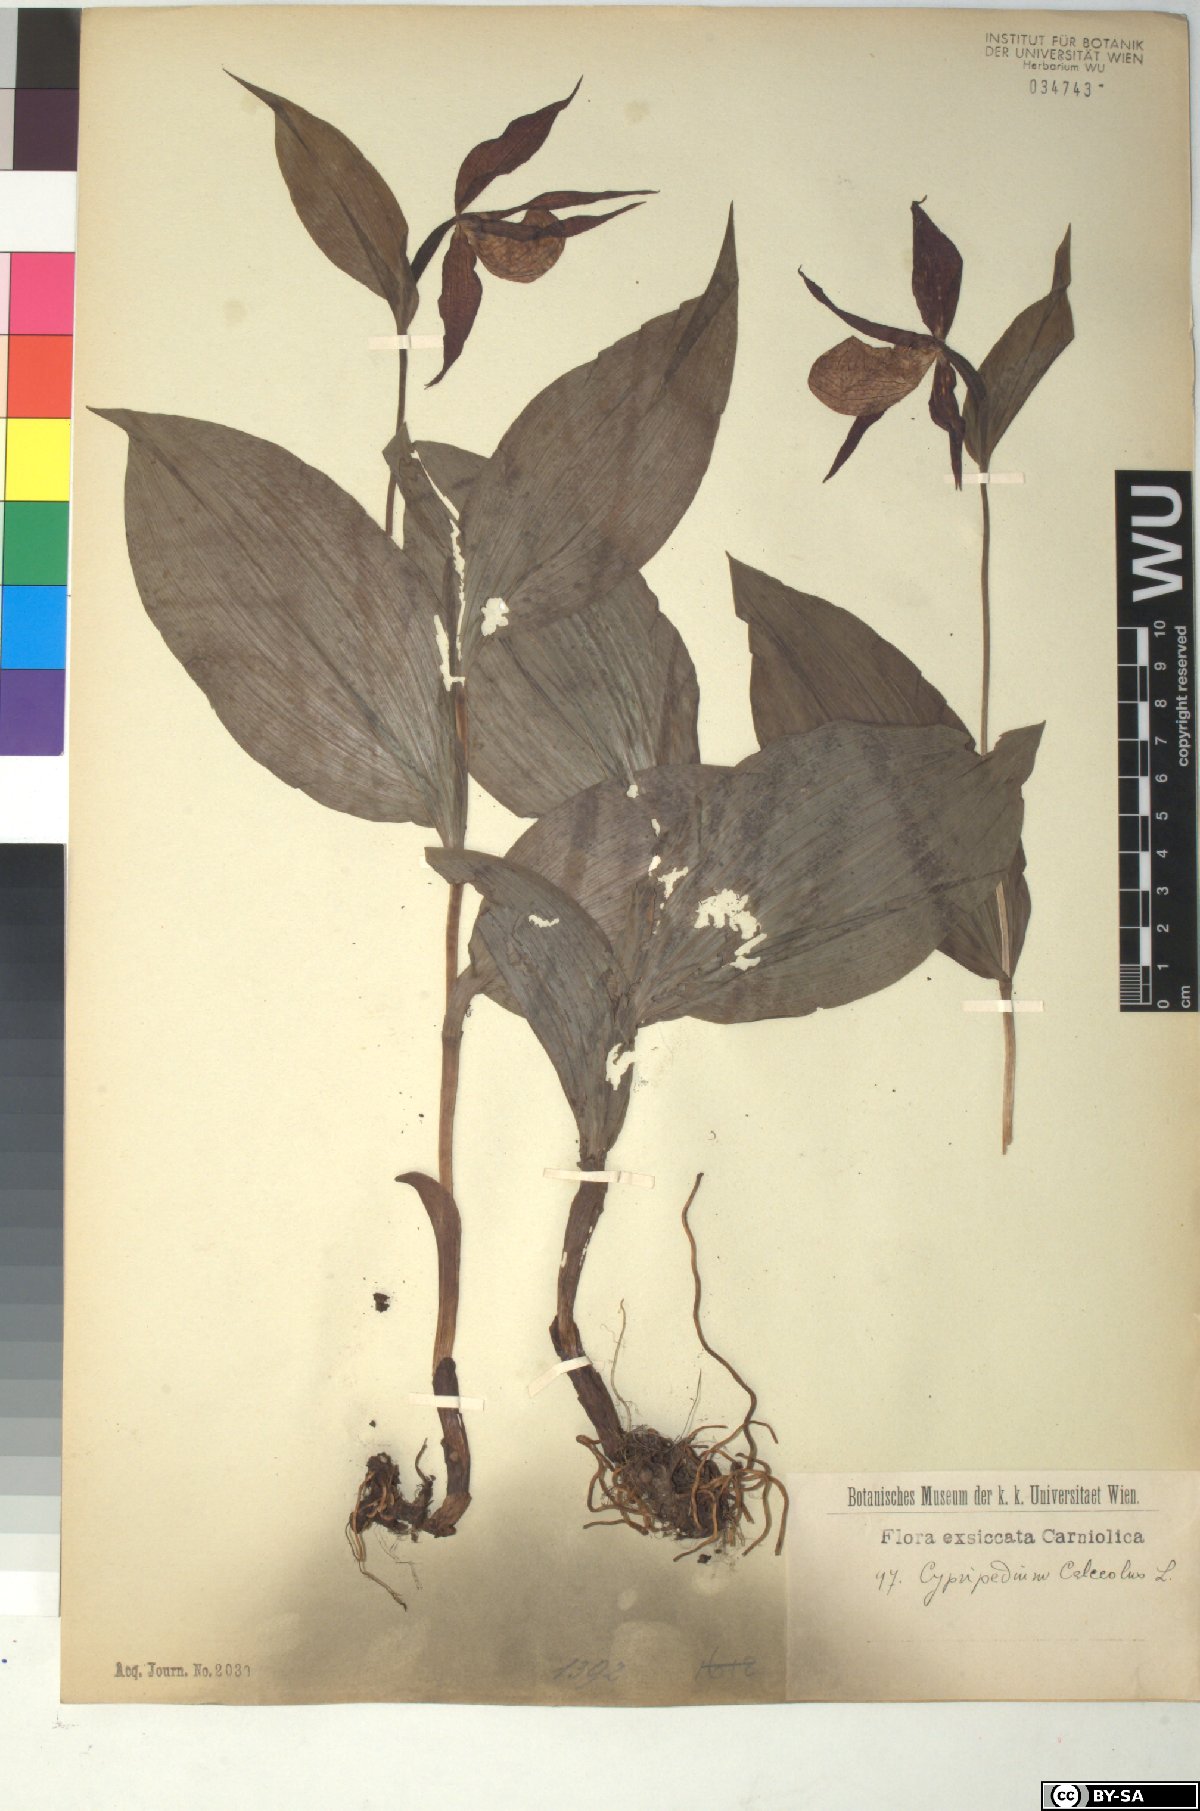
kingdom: Plantae
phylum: Tracheophyta
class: Liliopsida
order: Asparagales
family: Orchidaceae
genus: Cypripedium
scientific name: Cypripedium calceolus
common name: Lady's-slipper
